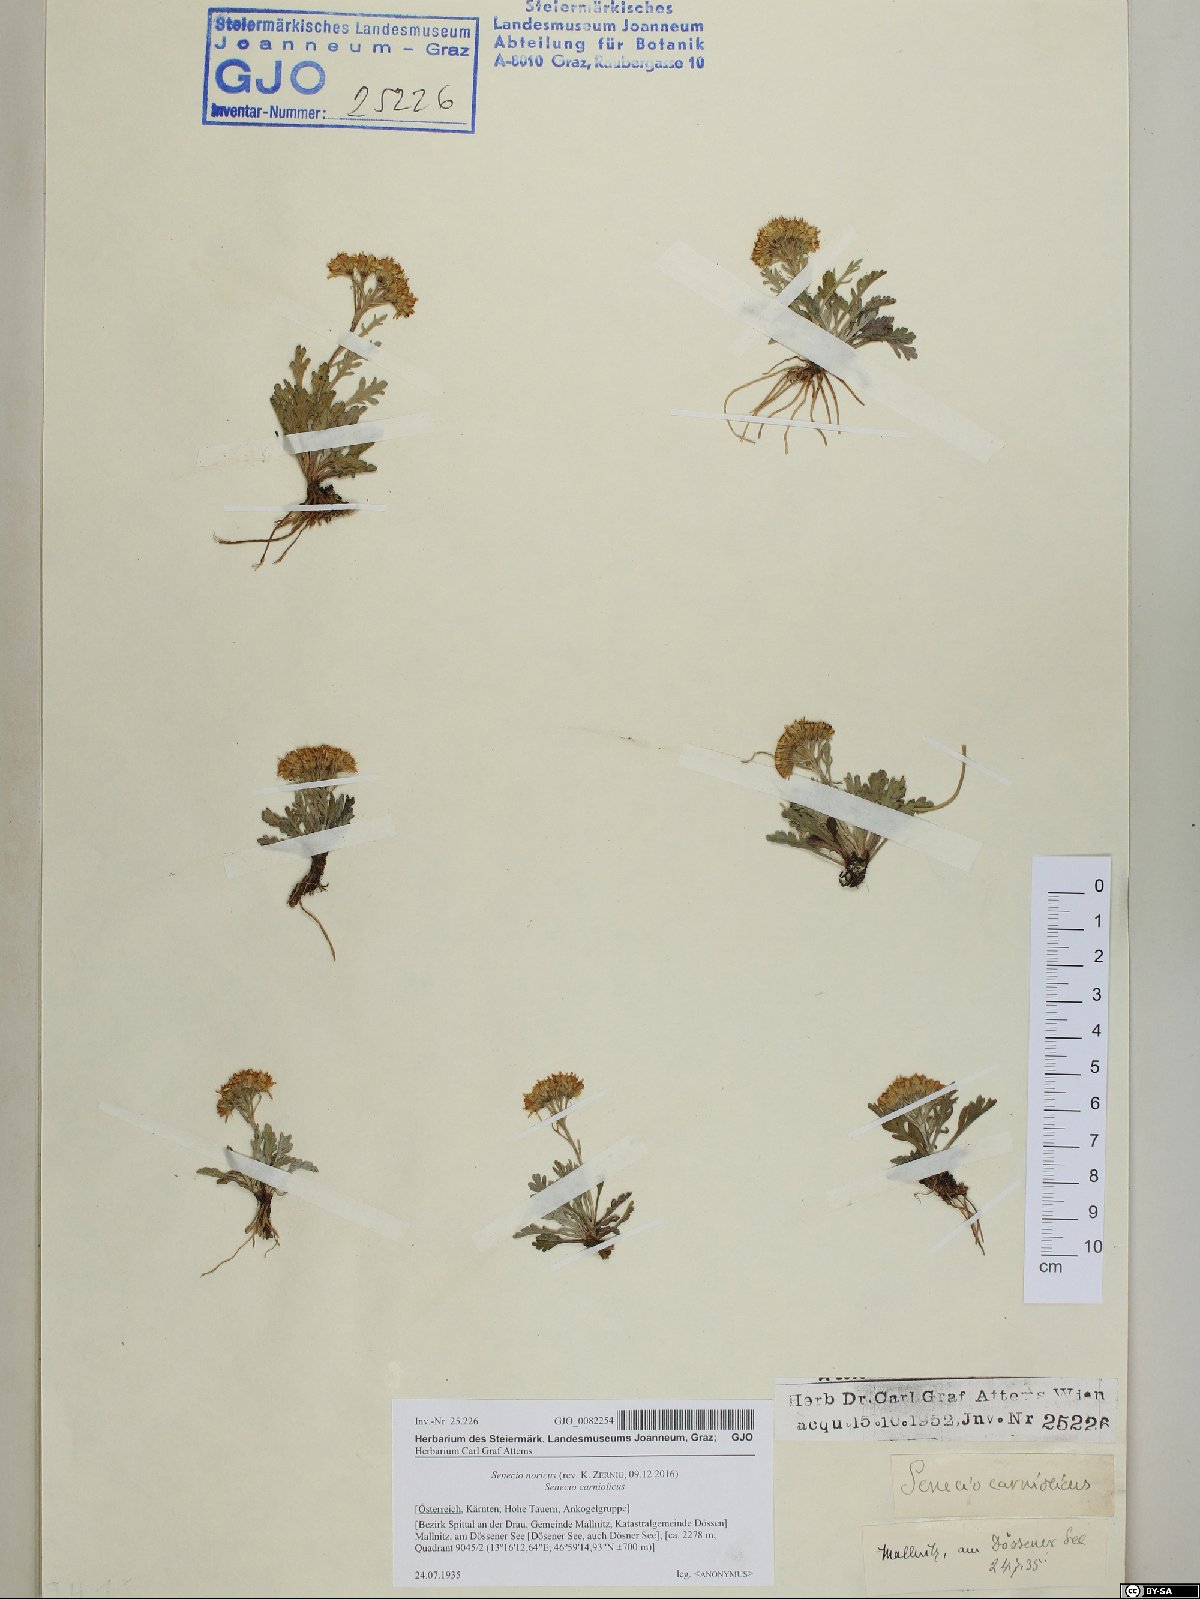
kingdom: Plantae
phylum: Tracheophyta
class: Magnoliopsida
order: Asterales
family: Asteraceae
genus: Jacobaea
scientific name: Jacobaea norica
